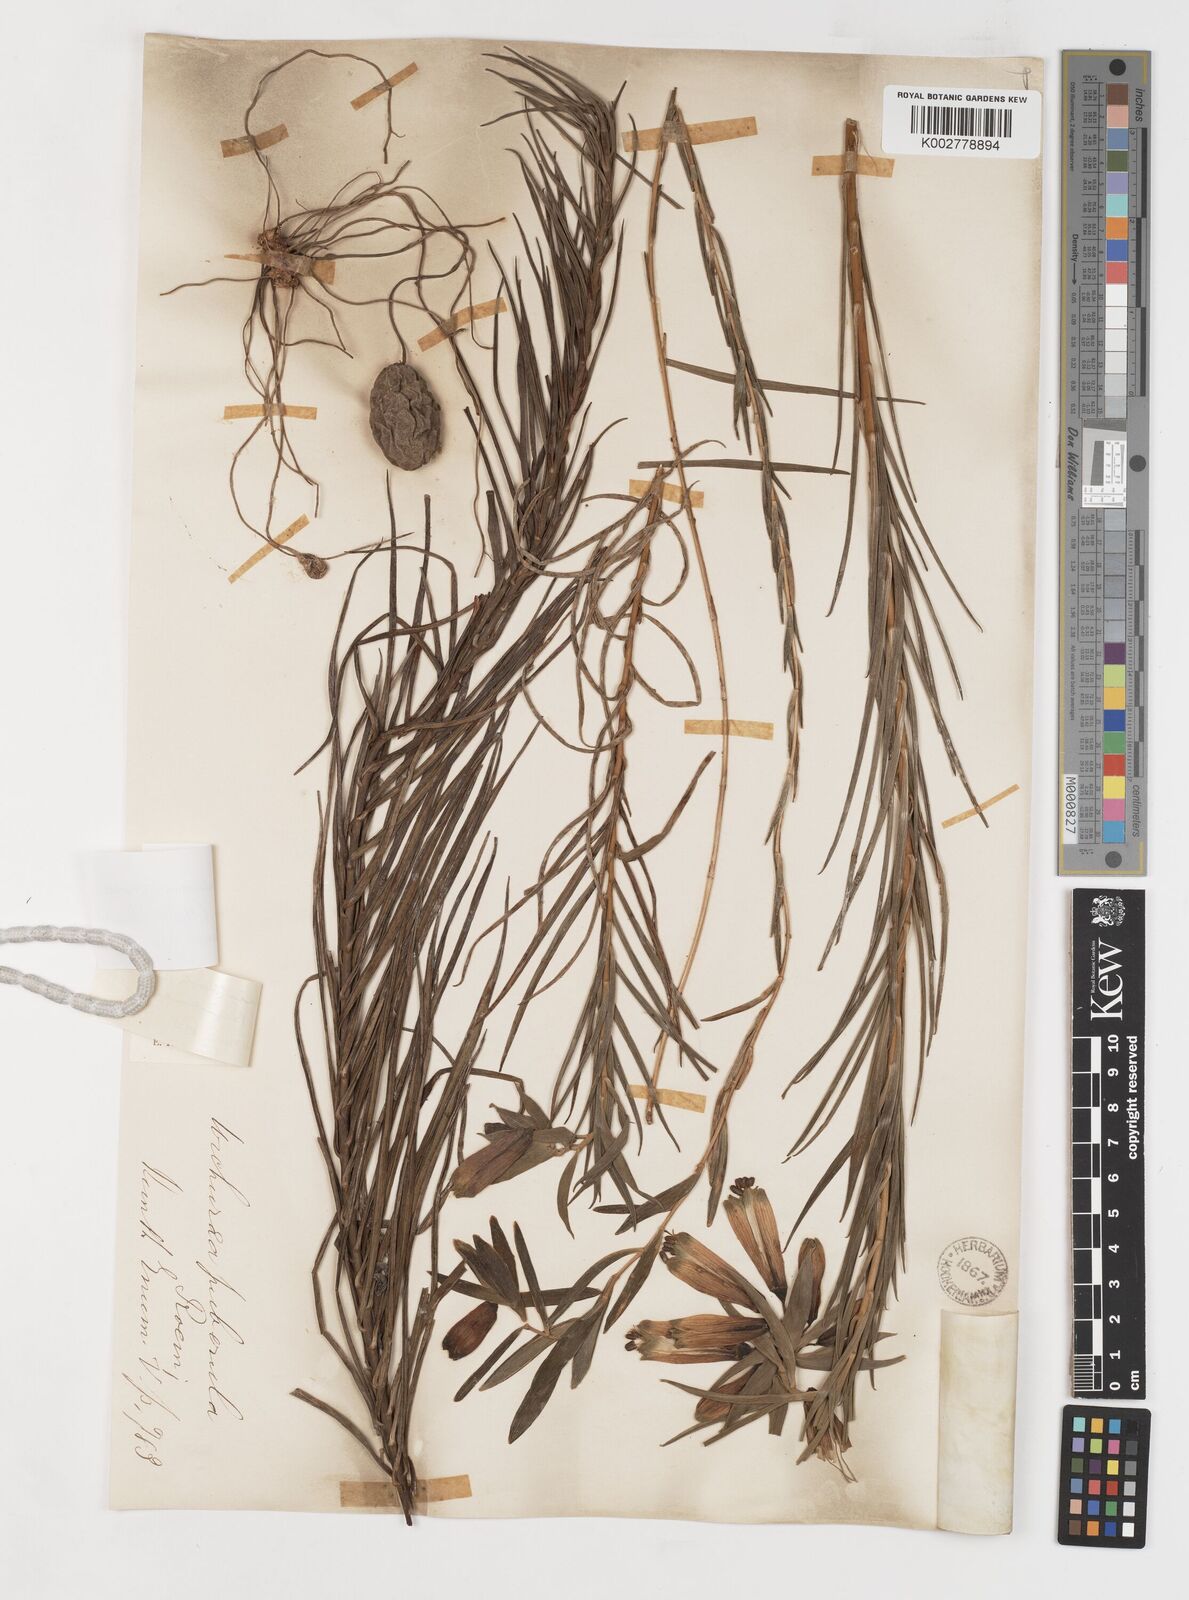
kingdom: Plantae
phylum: Tracheophyta
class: Liliopsida
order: Liliales
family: Alstroemeriaceae
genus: Bomarea
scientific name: Bomarea dulcis
